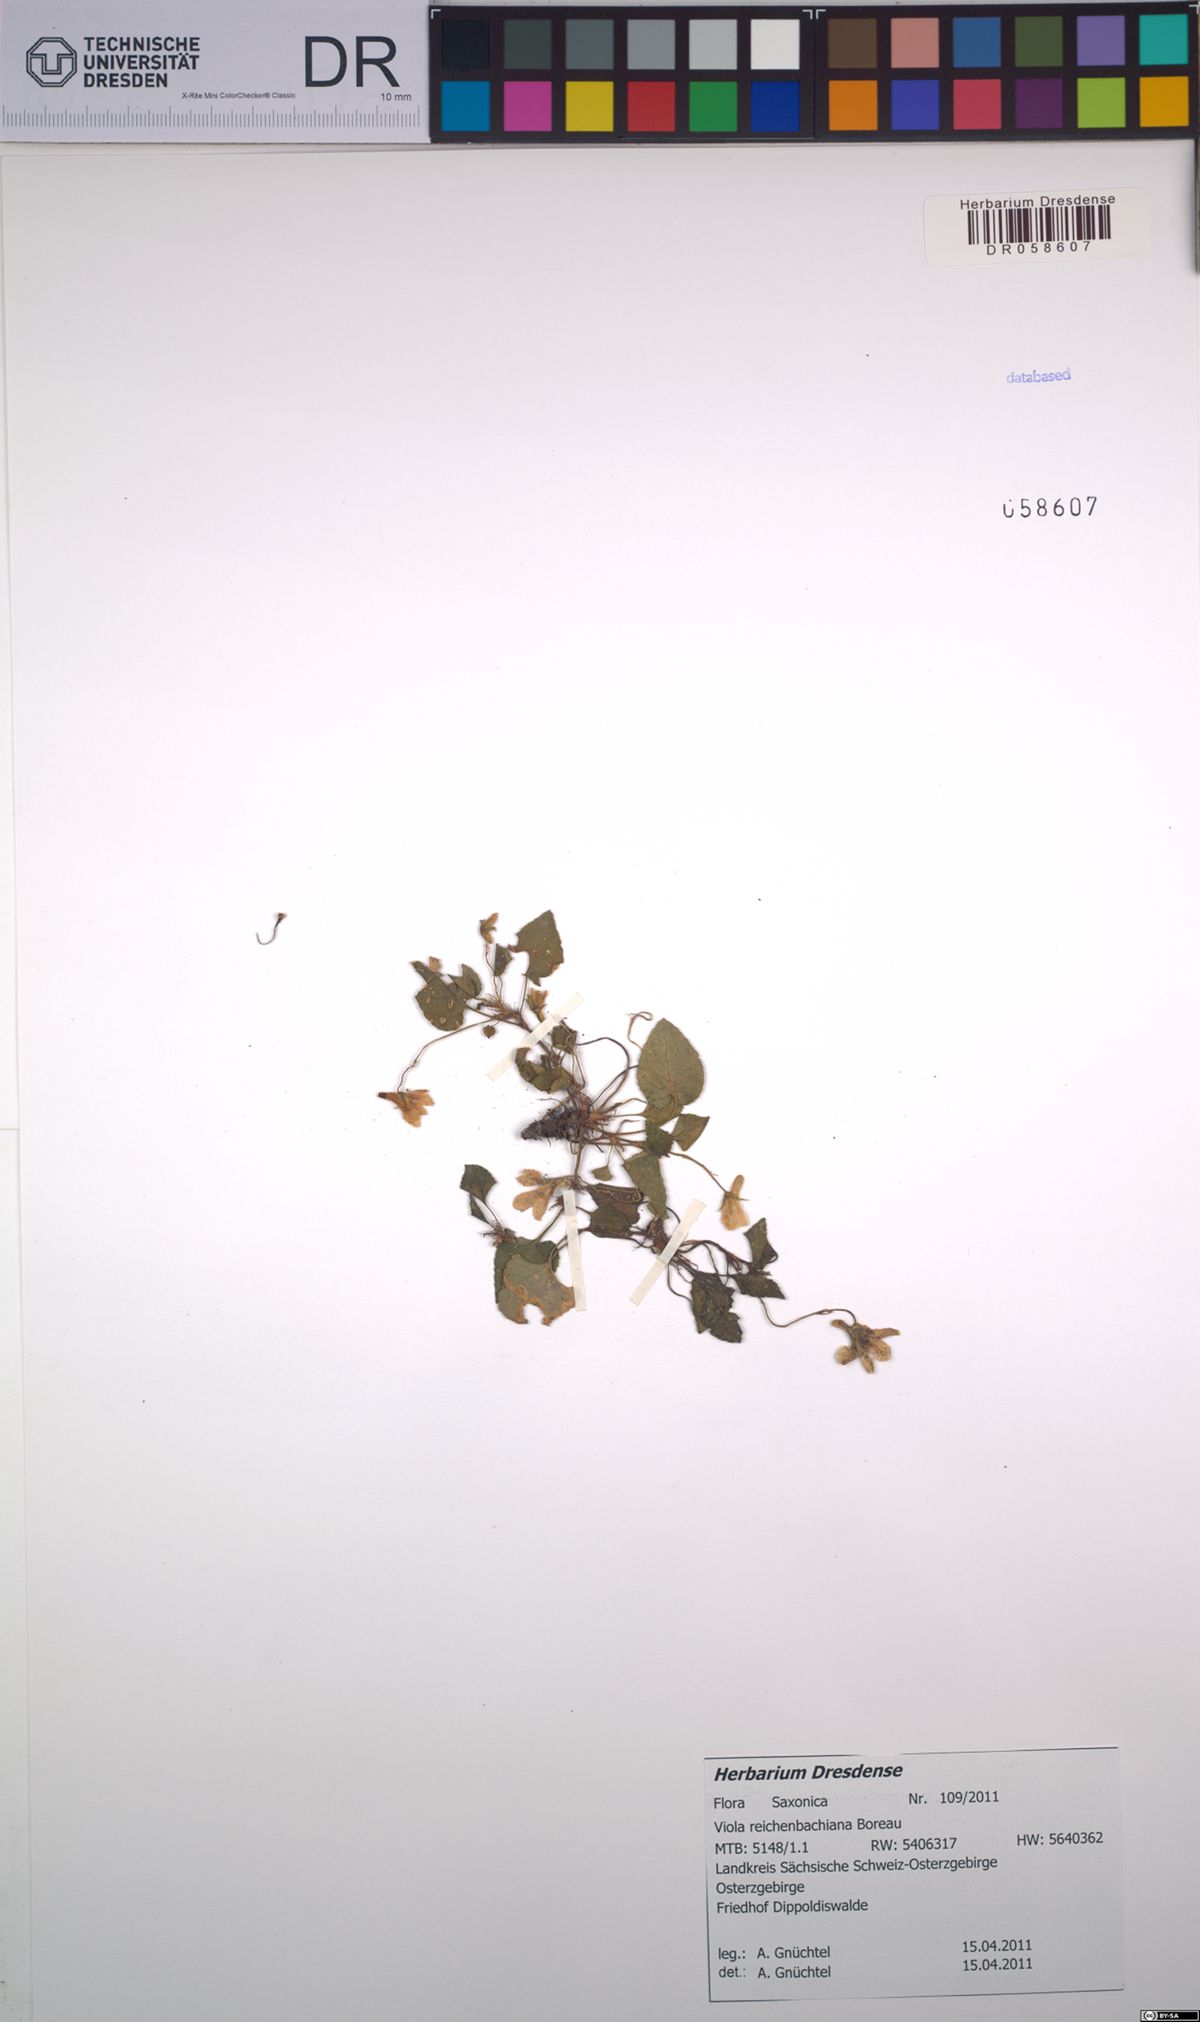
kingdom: Plantae
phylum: Tracheophyta
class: Magnoliopsida
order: Malpighiales
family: Violaceae
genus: Viola
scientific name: Viola reichenbachiana
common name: Early dog-violet
